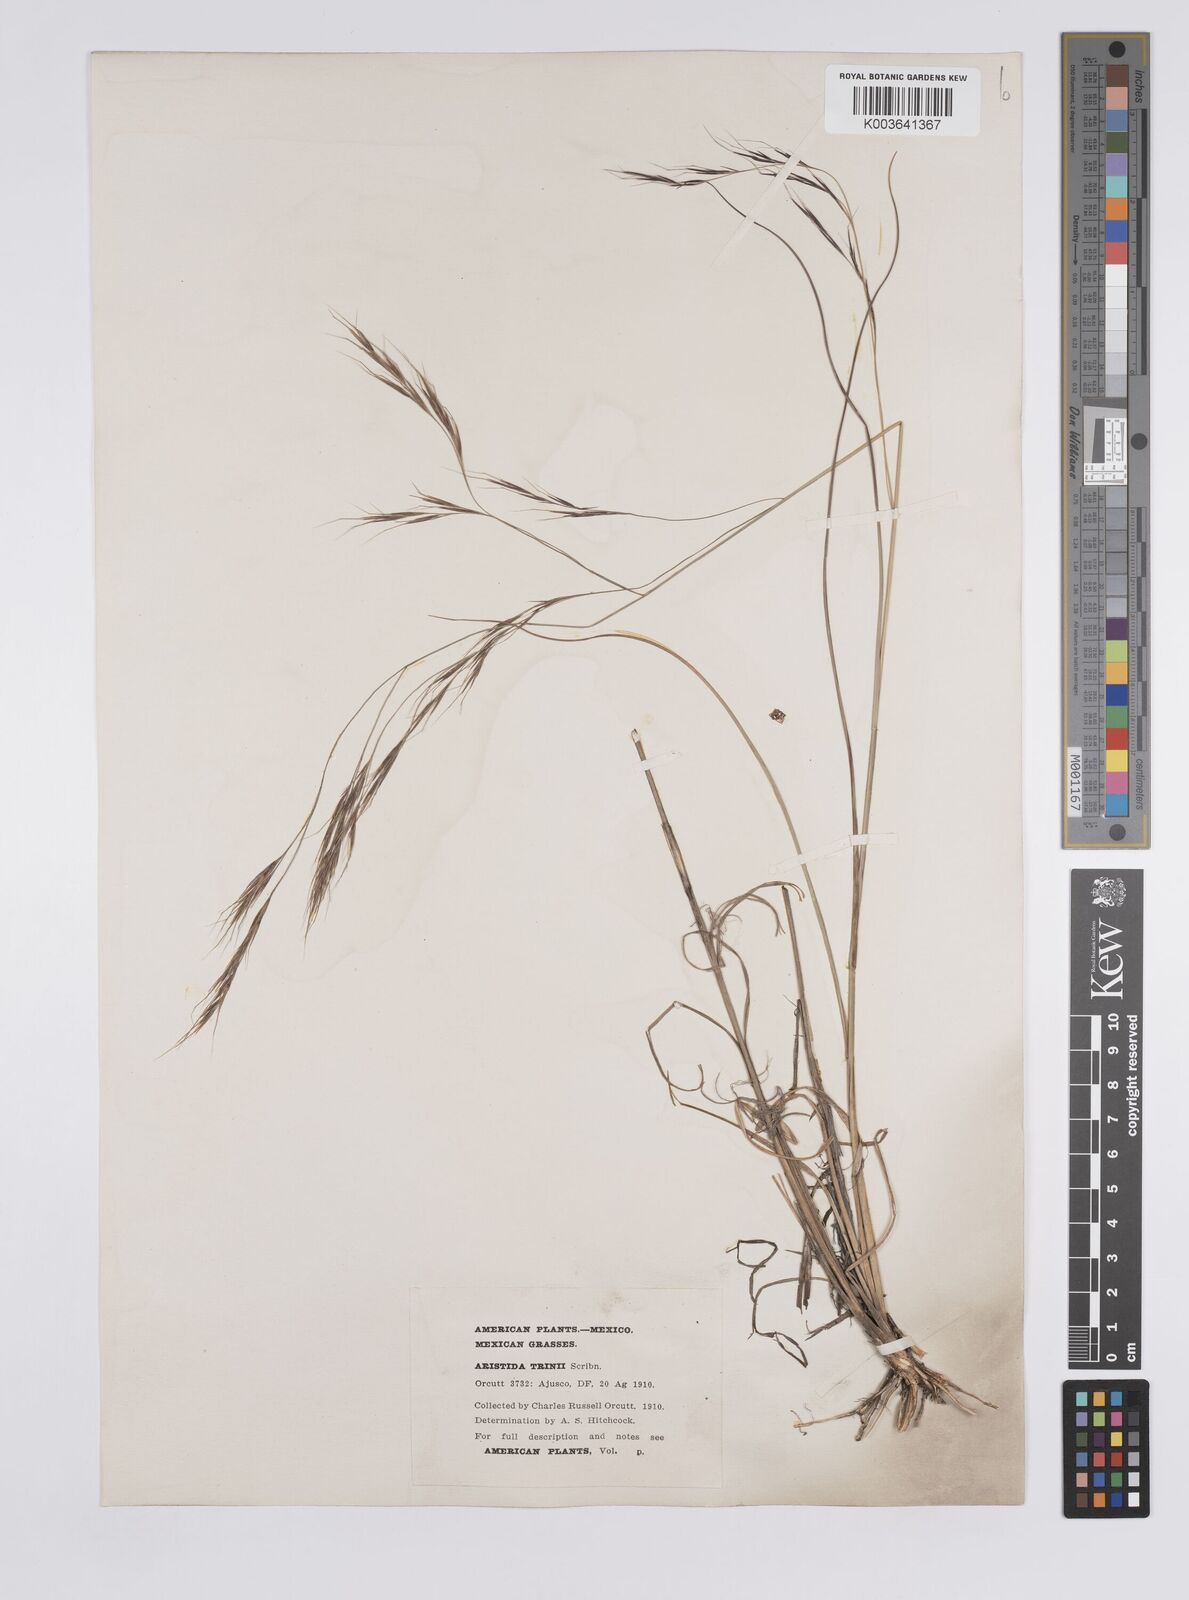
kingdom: Plantae
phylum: Tracheophyta
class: Liliopsida
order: Poales
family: Poaceae
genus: Aristida
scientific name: Aristida ekmaniana
